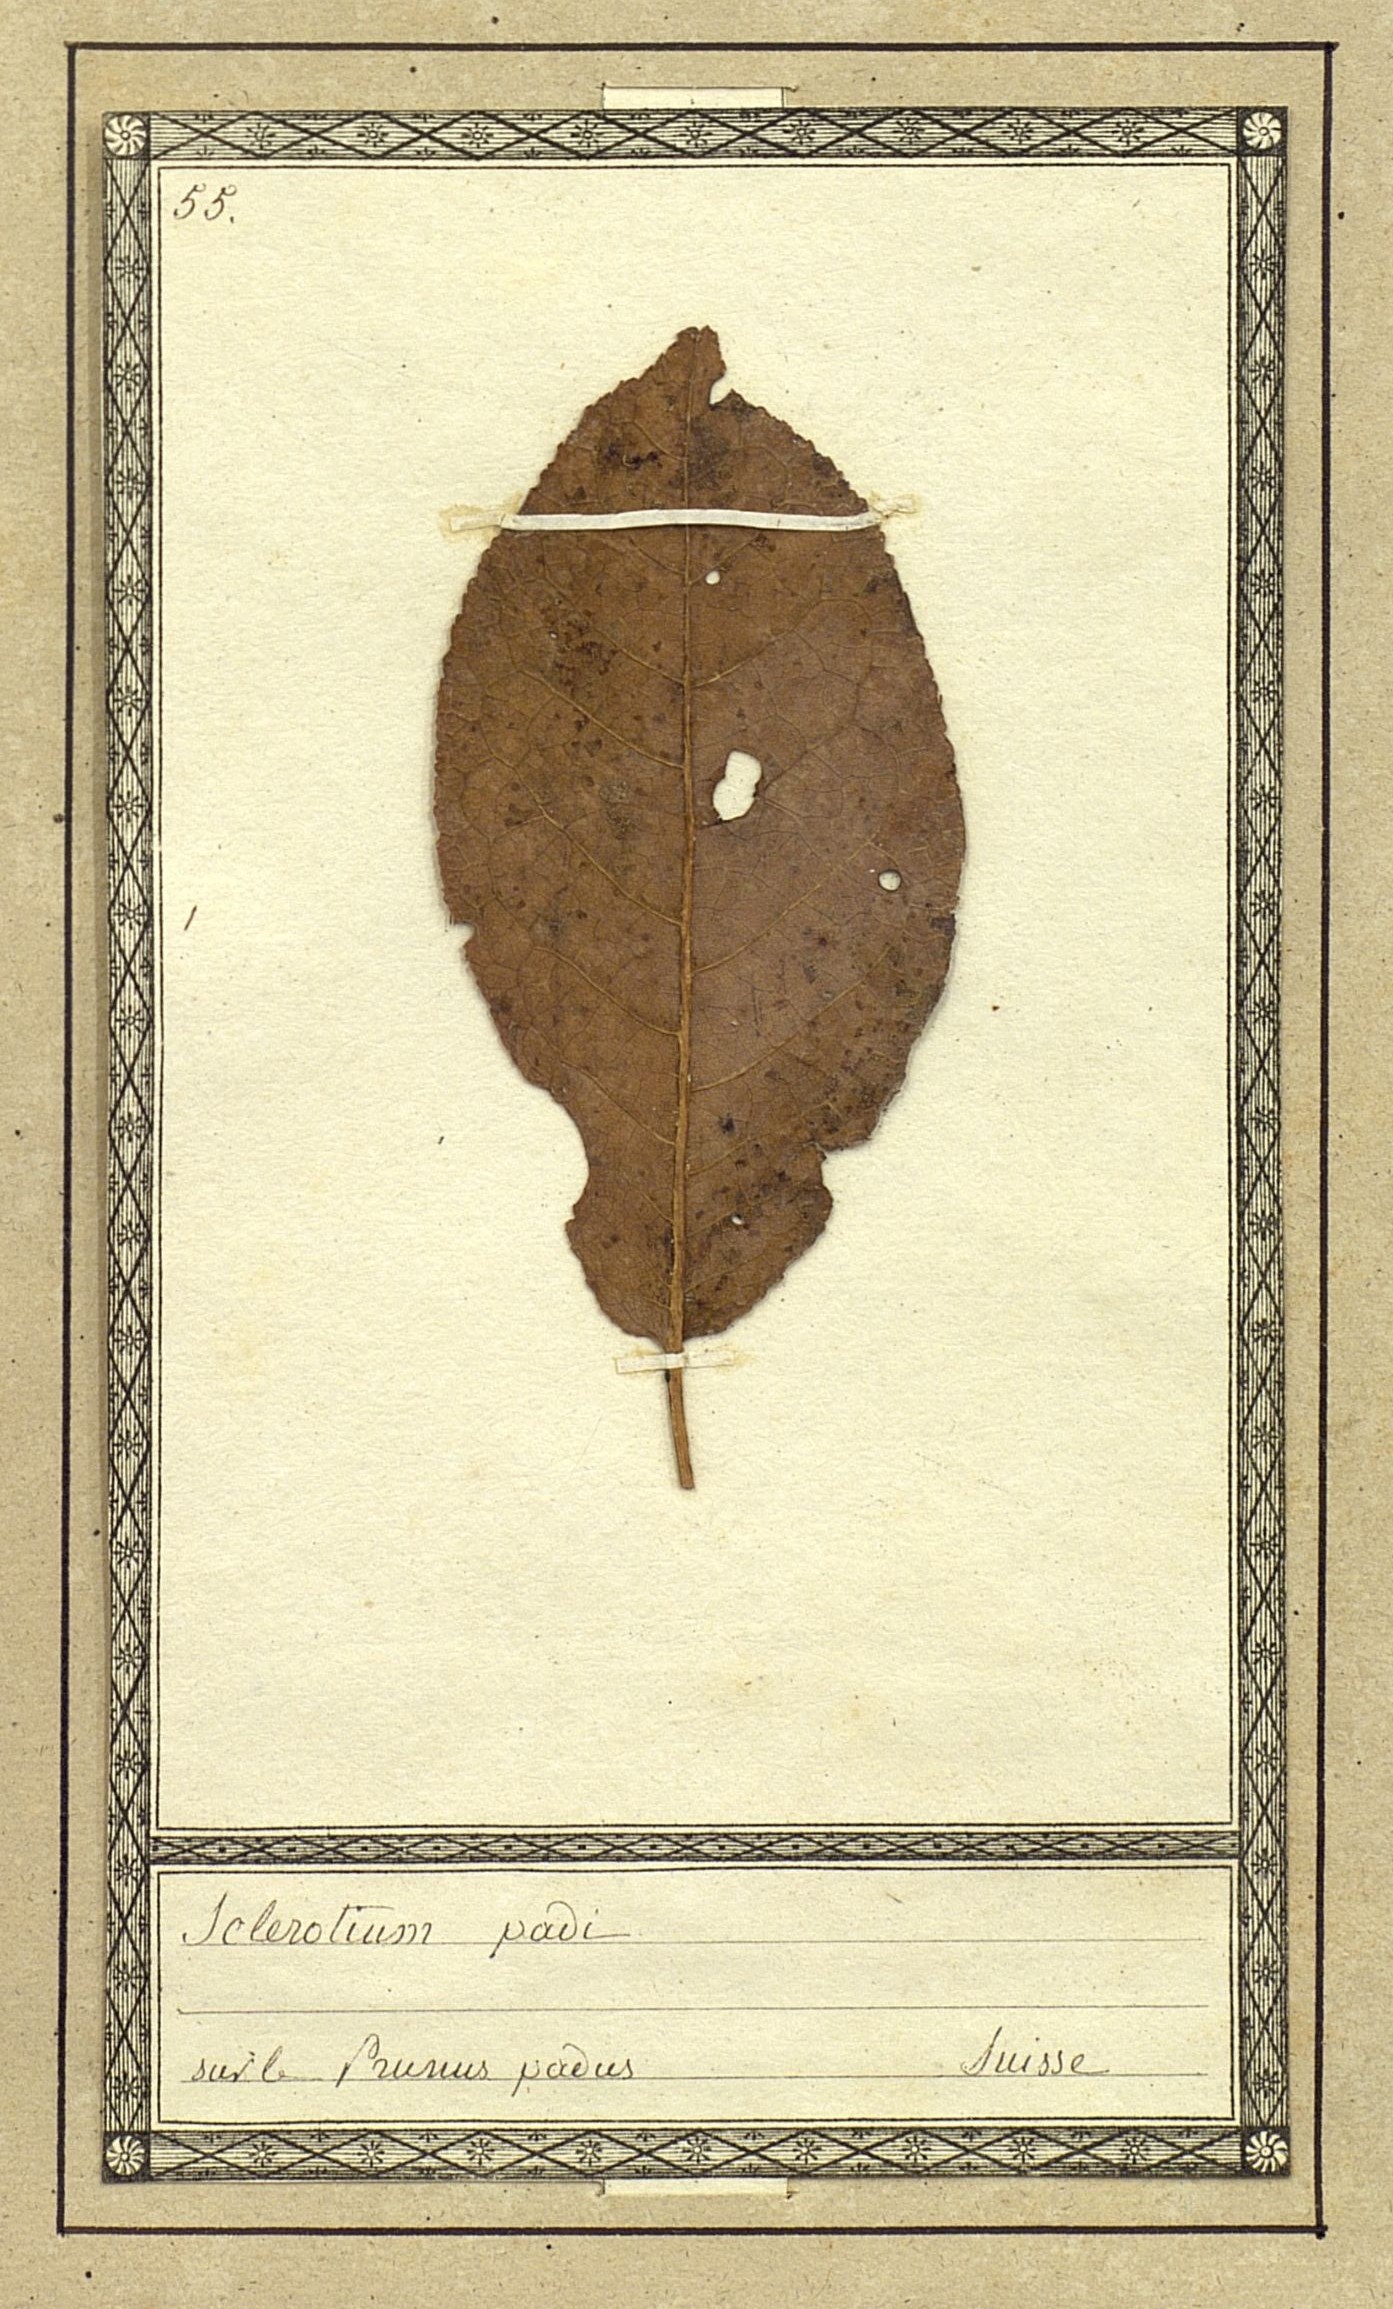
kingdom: Fungi
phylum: Basidiomycota
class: Agaricomycetes
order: Agaricales
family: Typhulaceae
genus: Sclerotium
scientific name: Sclerotium
